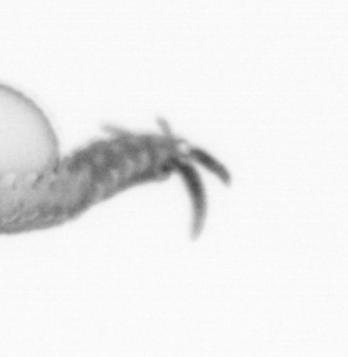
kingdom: Animalia
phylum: Annelida
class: Polychaeta
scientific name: Polychaeta
